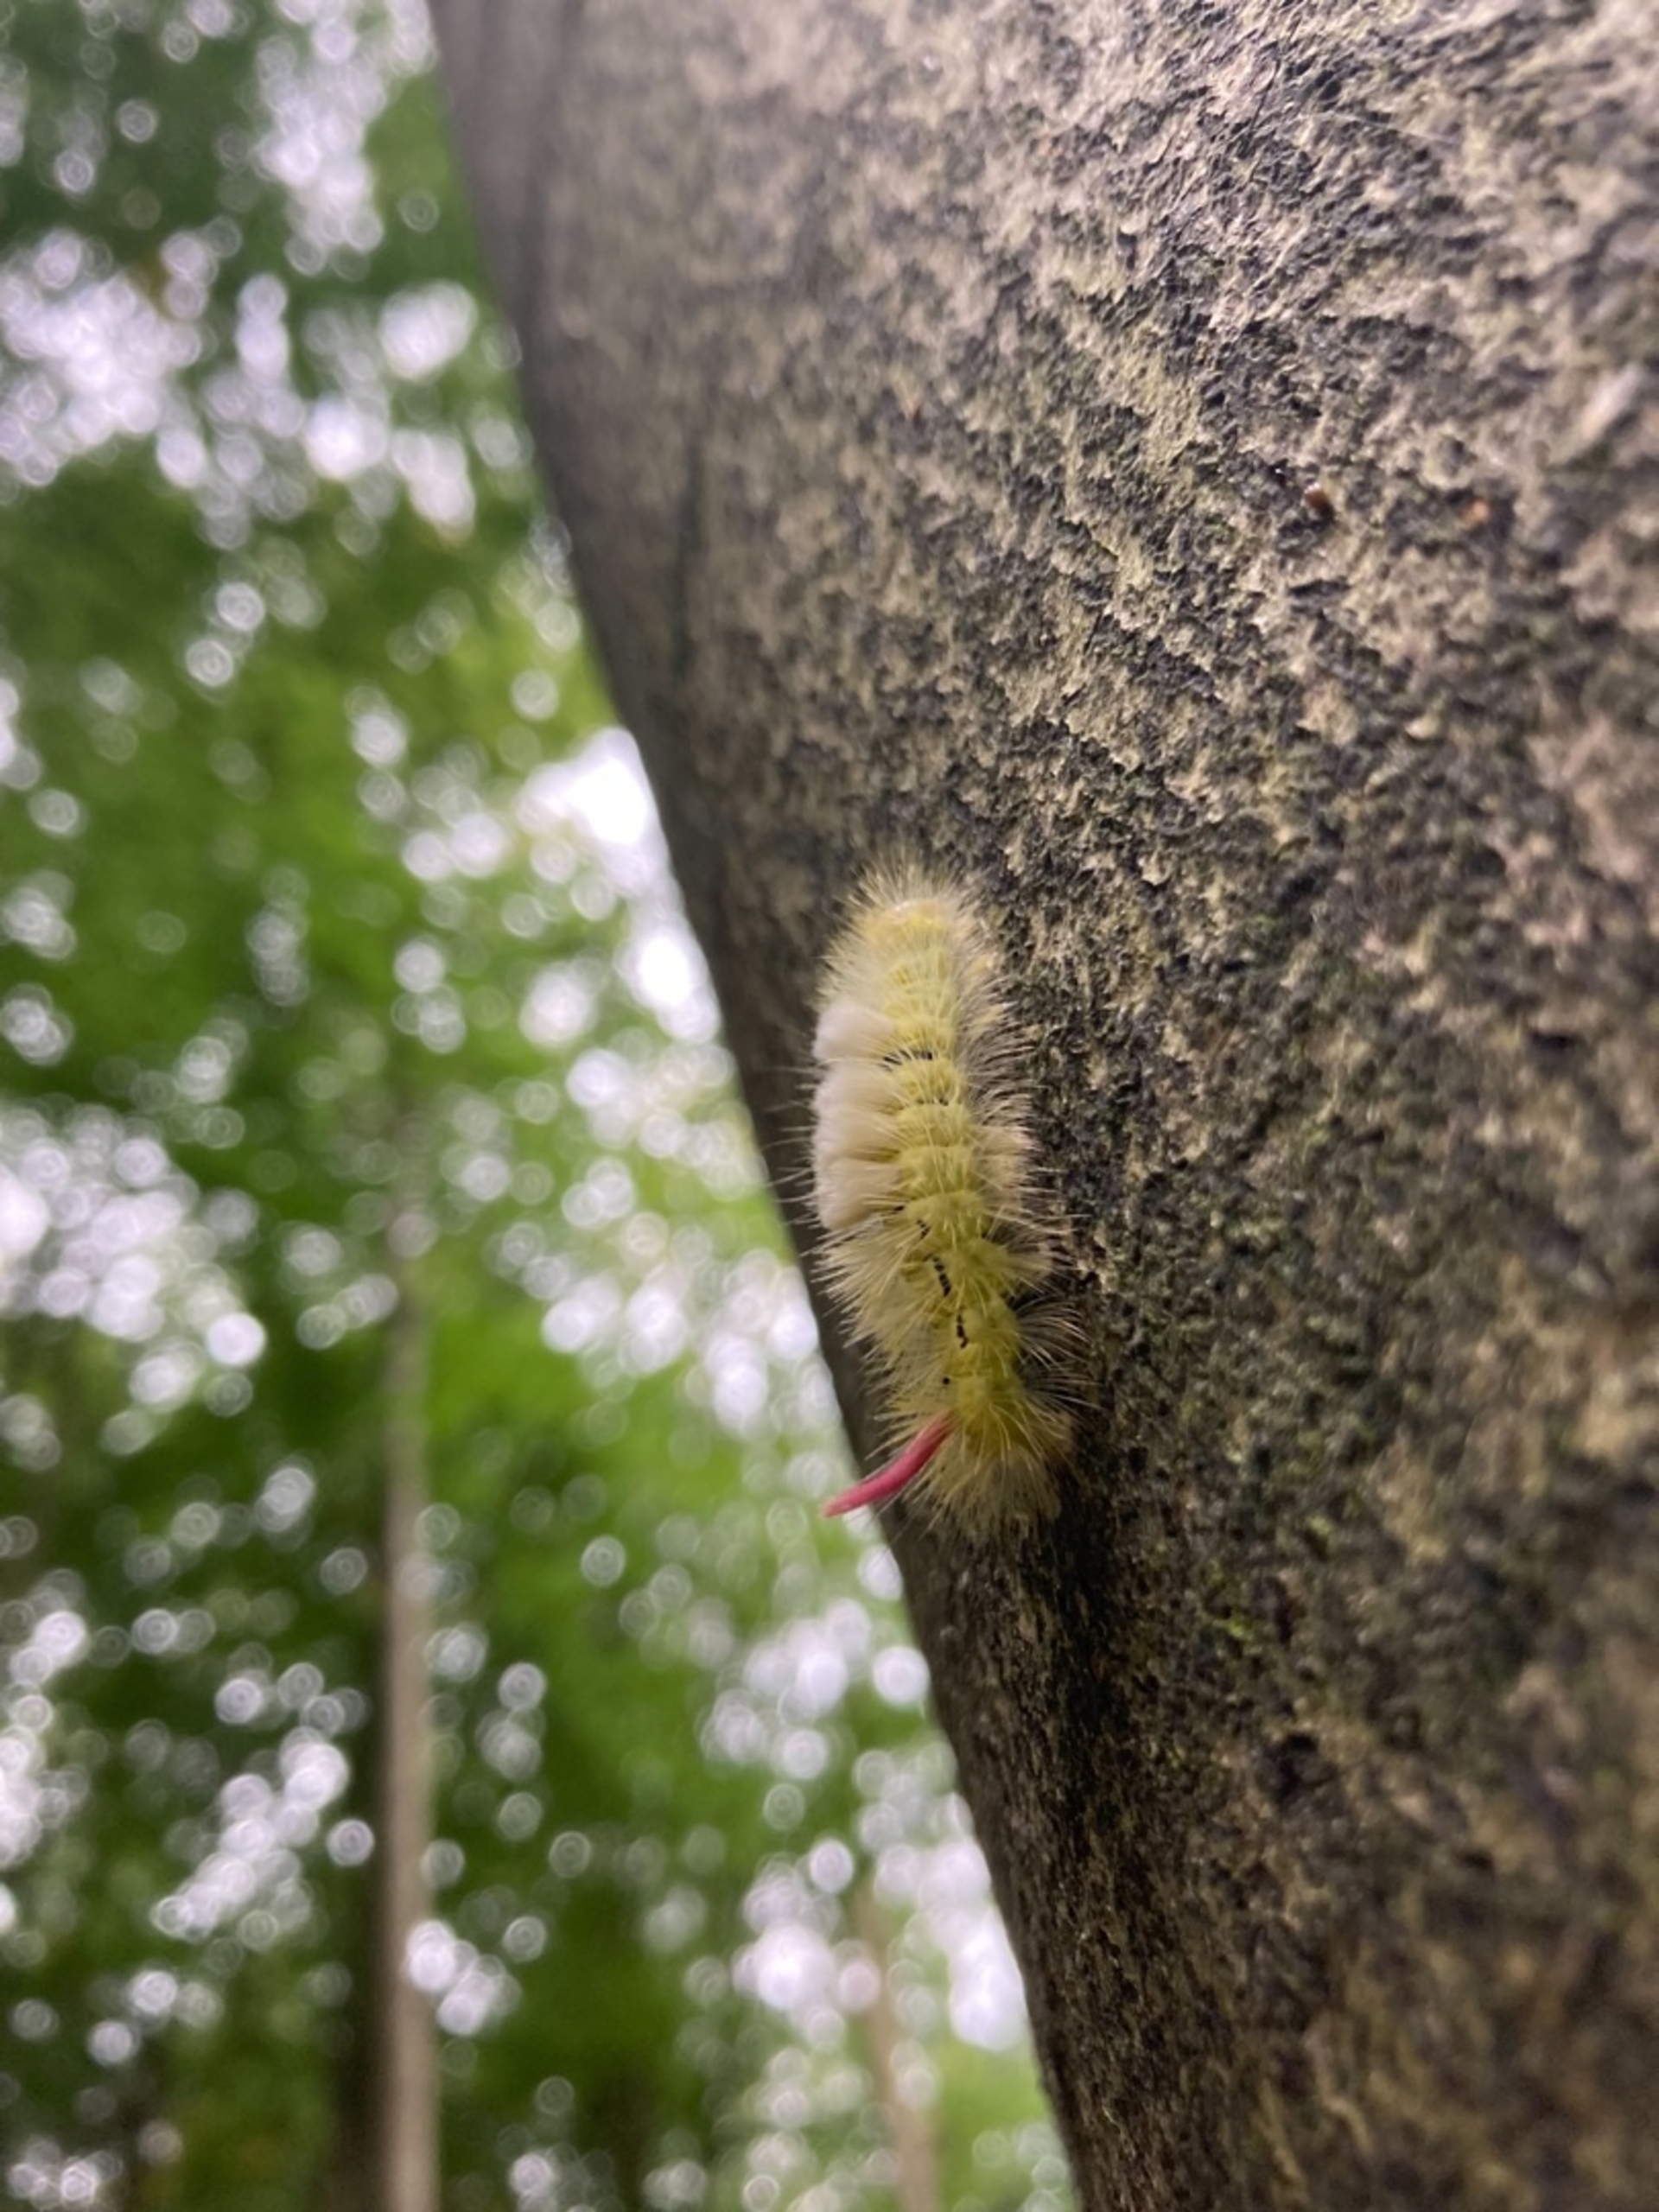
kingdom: Animalia
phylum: Arthropoda
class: Insecta
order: Lepidoptera
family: Erebidae
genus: Calliteara
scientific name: Calliteara pudibunda
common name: Bøgenonne
